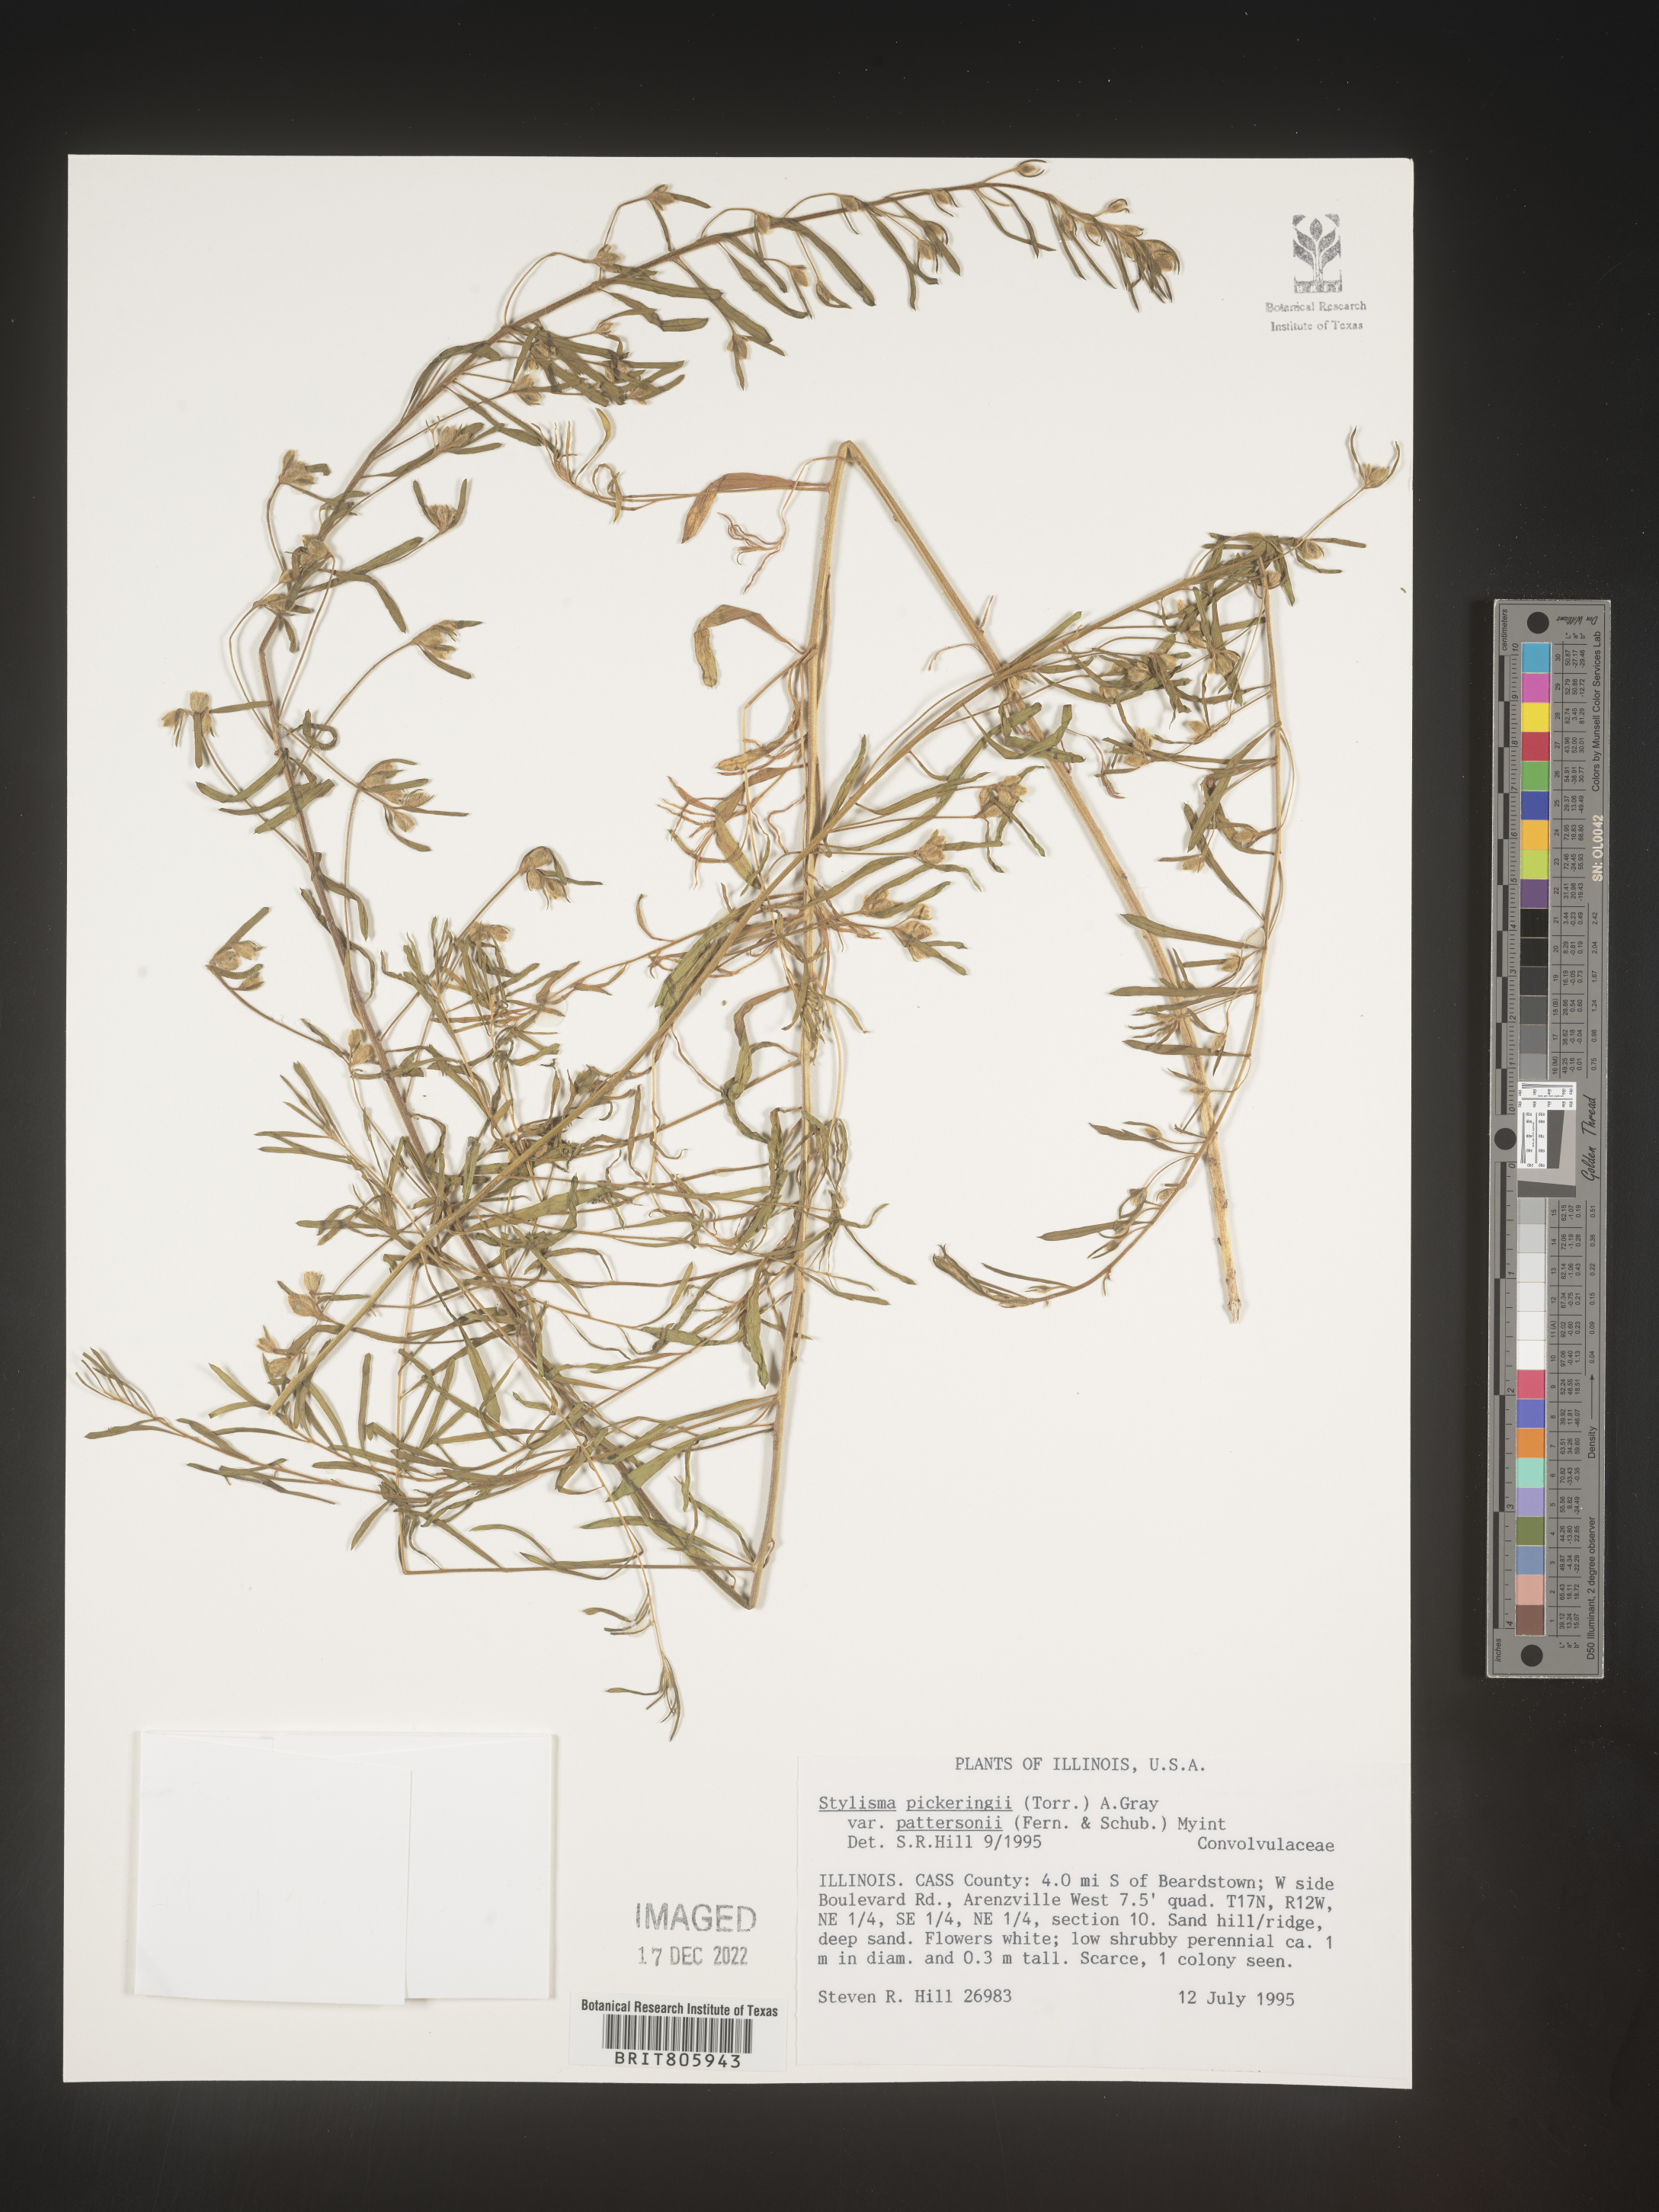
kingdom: Plantae
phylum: Tracheophyta
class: Magnoliopsida
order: Solanales
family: Convolvulaceae
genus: Stylisma
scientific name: Stylisma
